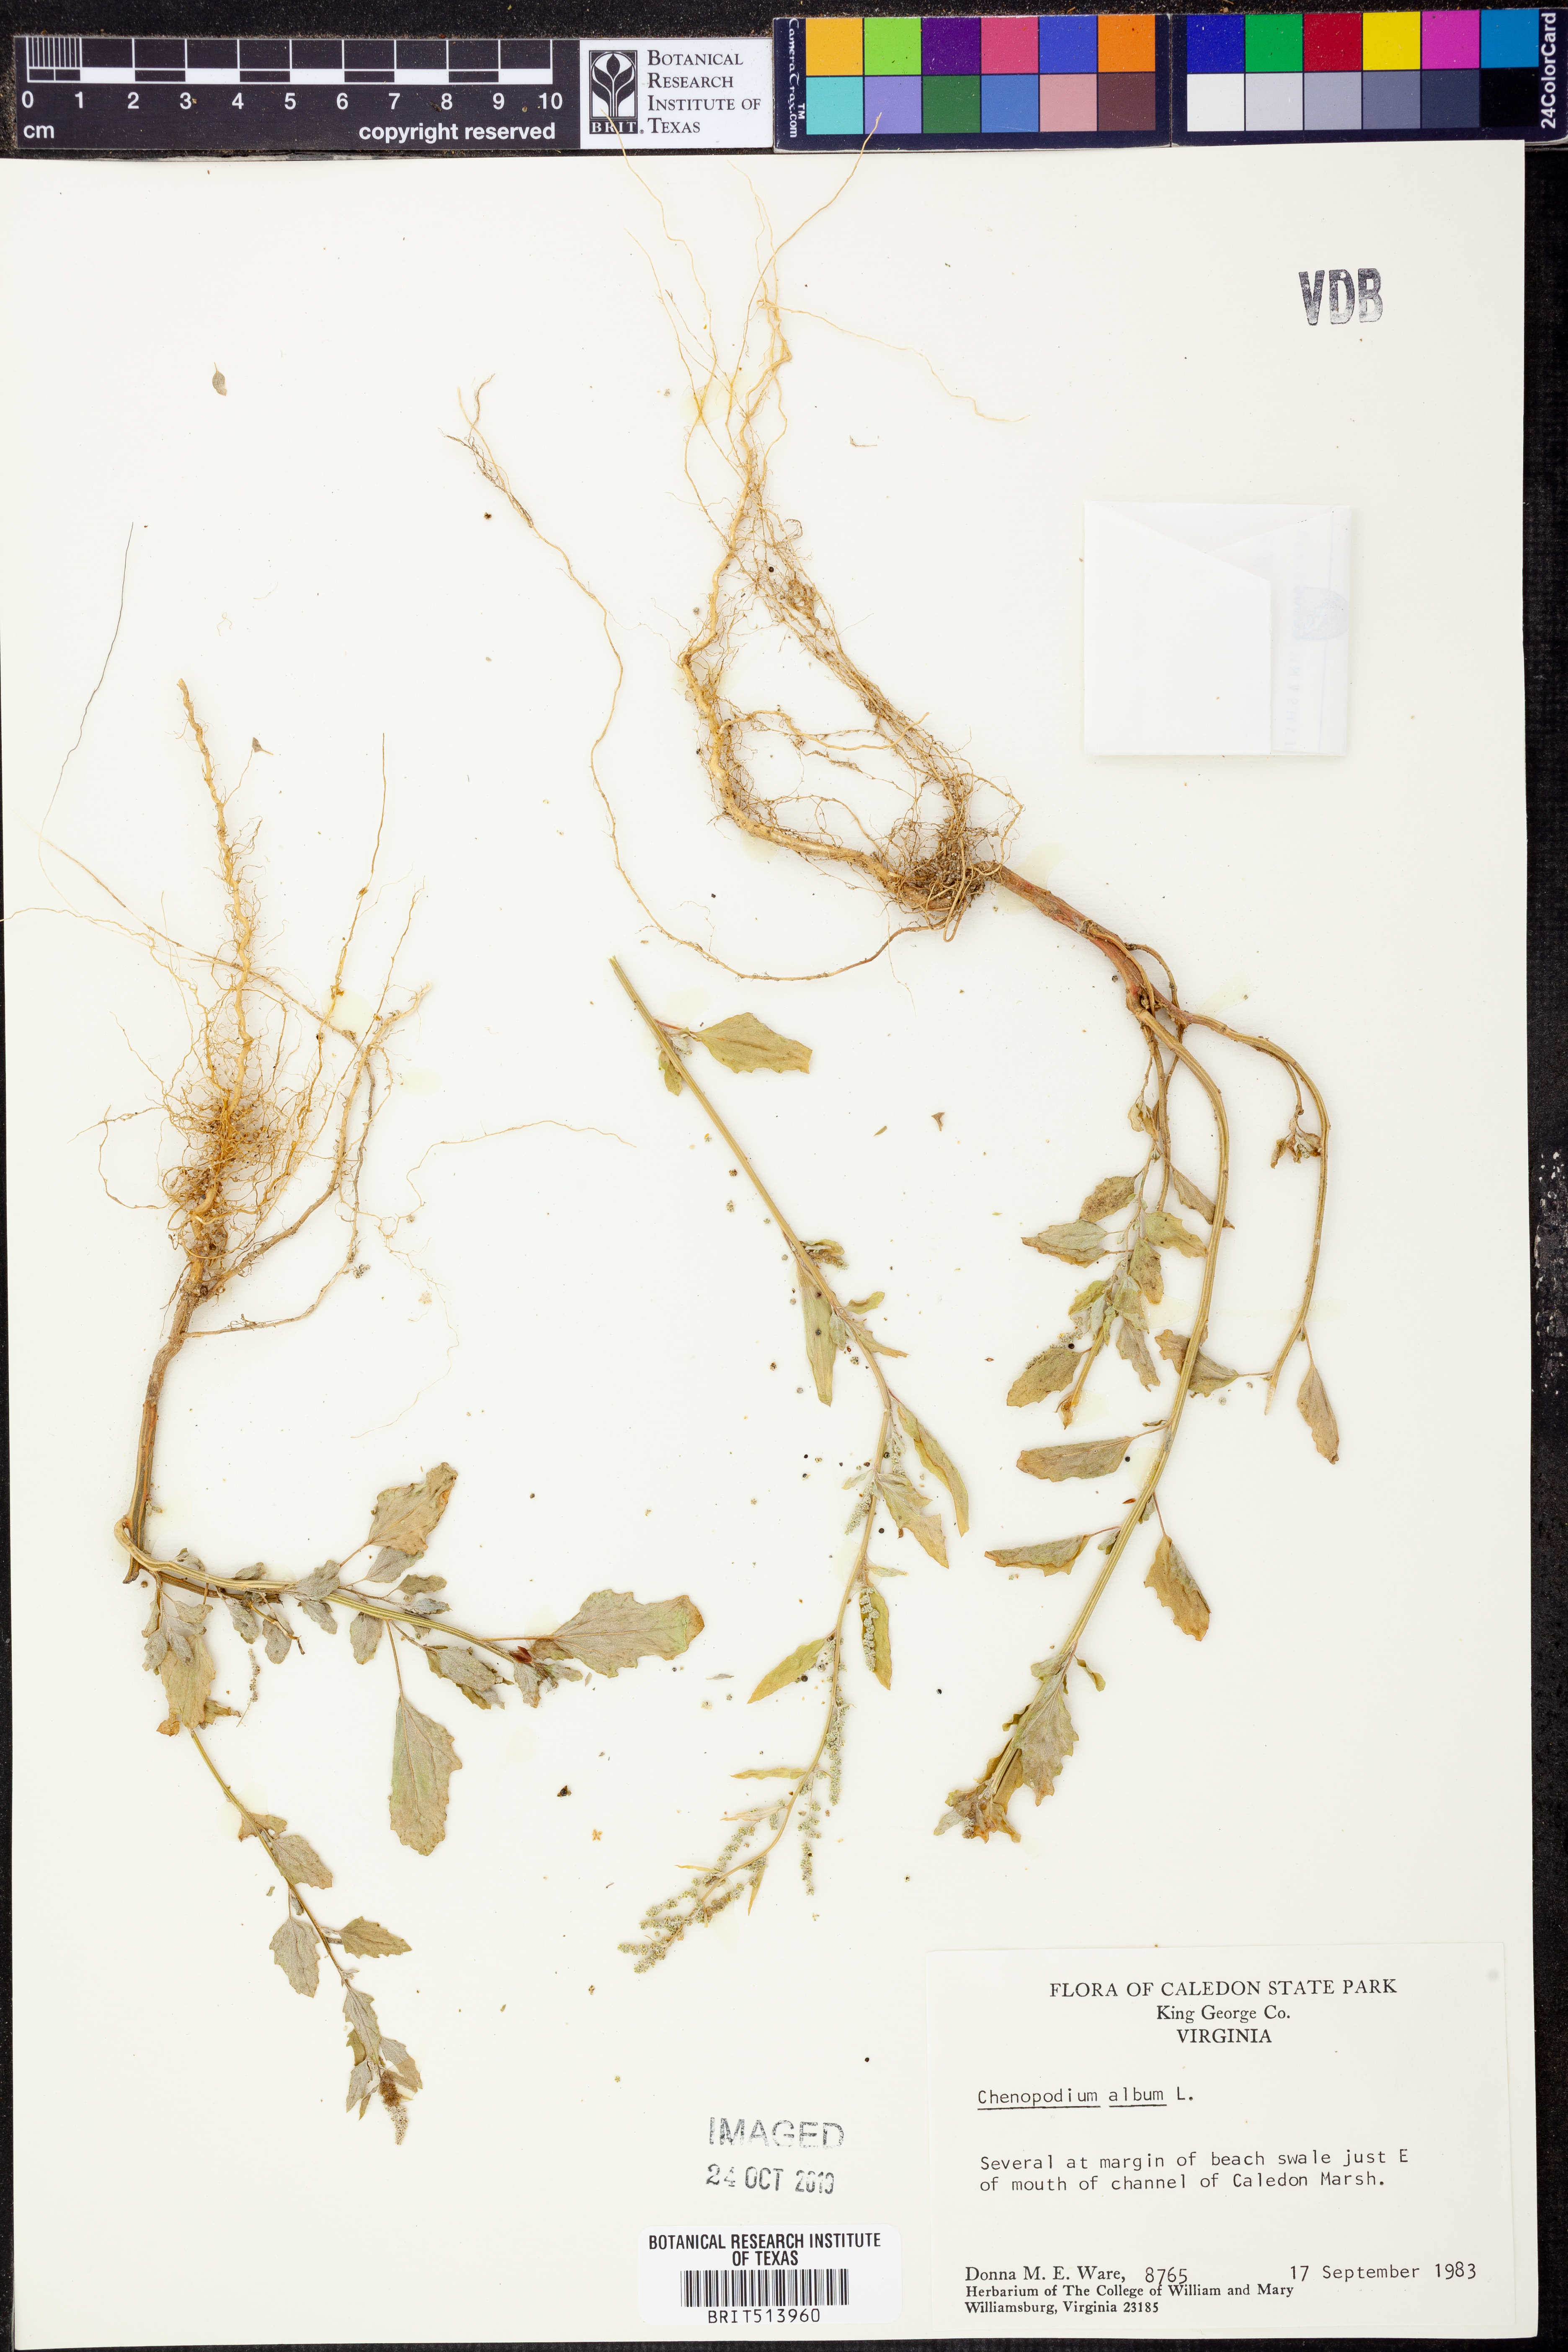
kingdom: Plantae
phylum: Tracheophyta
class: Magnoliopsida
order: Caryophyllales
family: Amaranthaceae
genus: Chenopodium
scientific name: Chenopodium album
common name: Fat-hen
